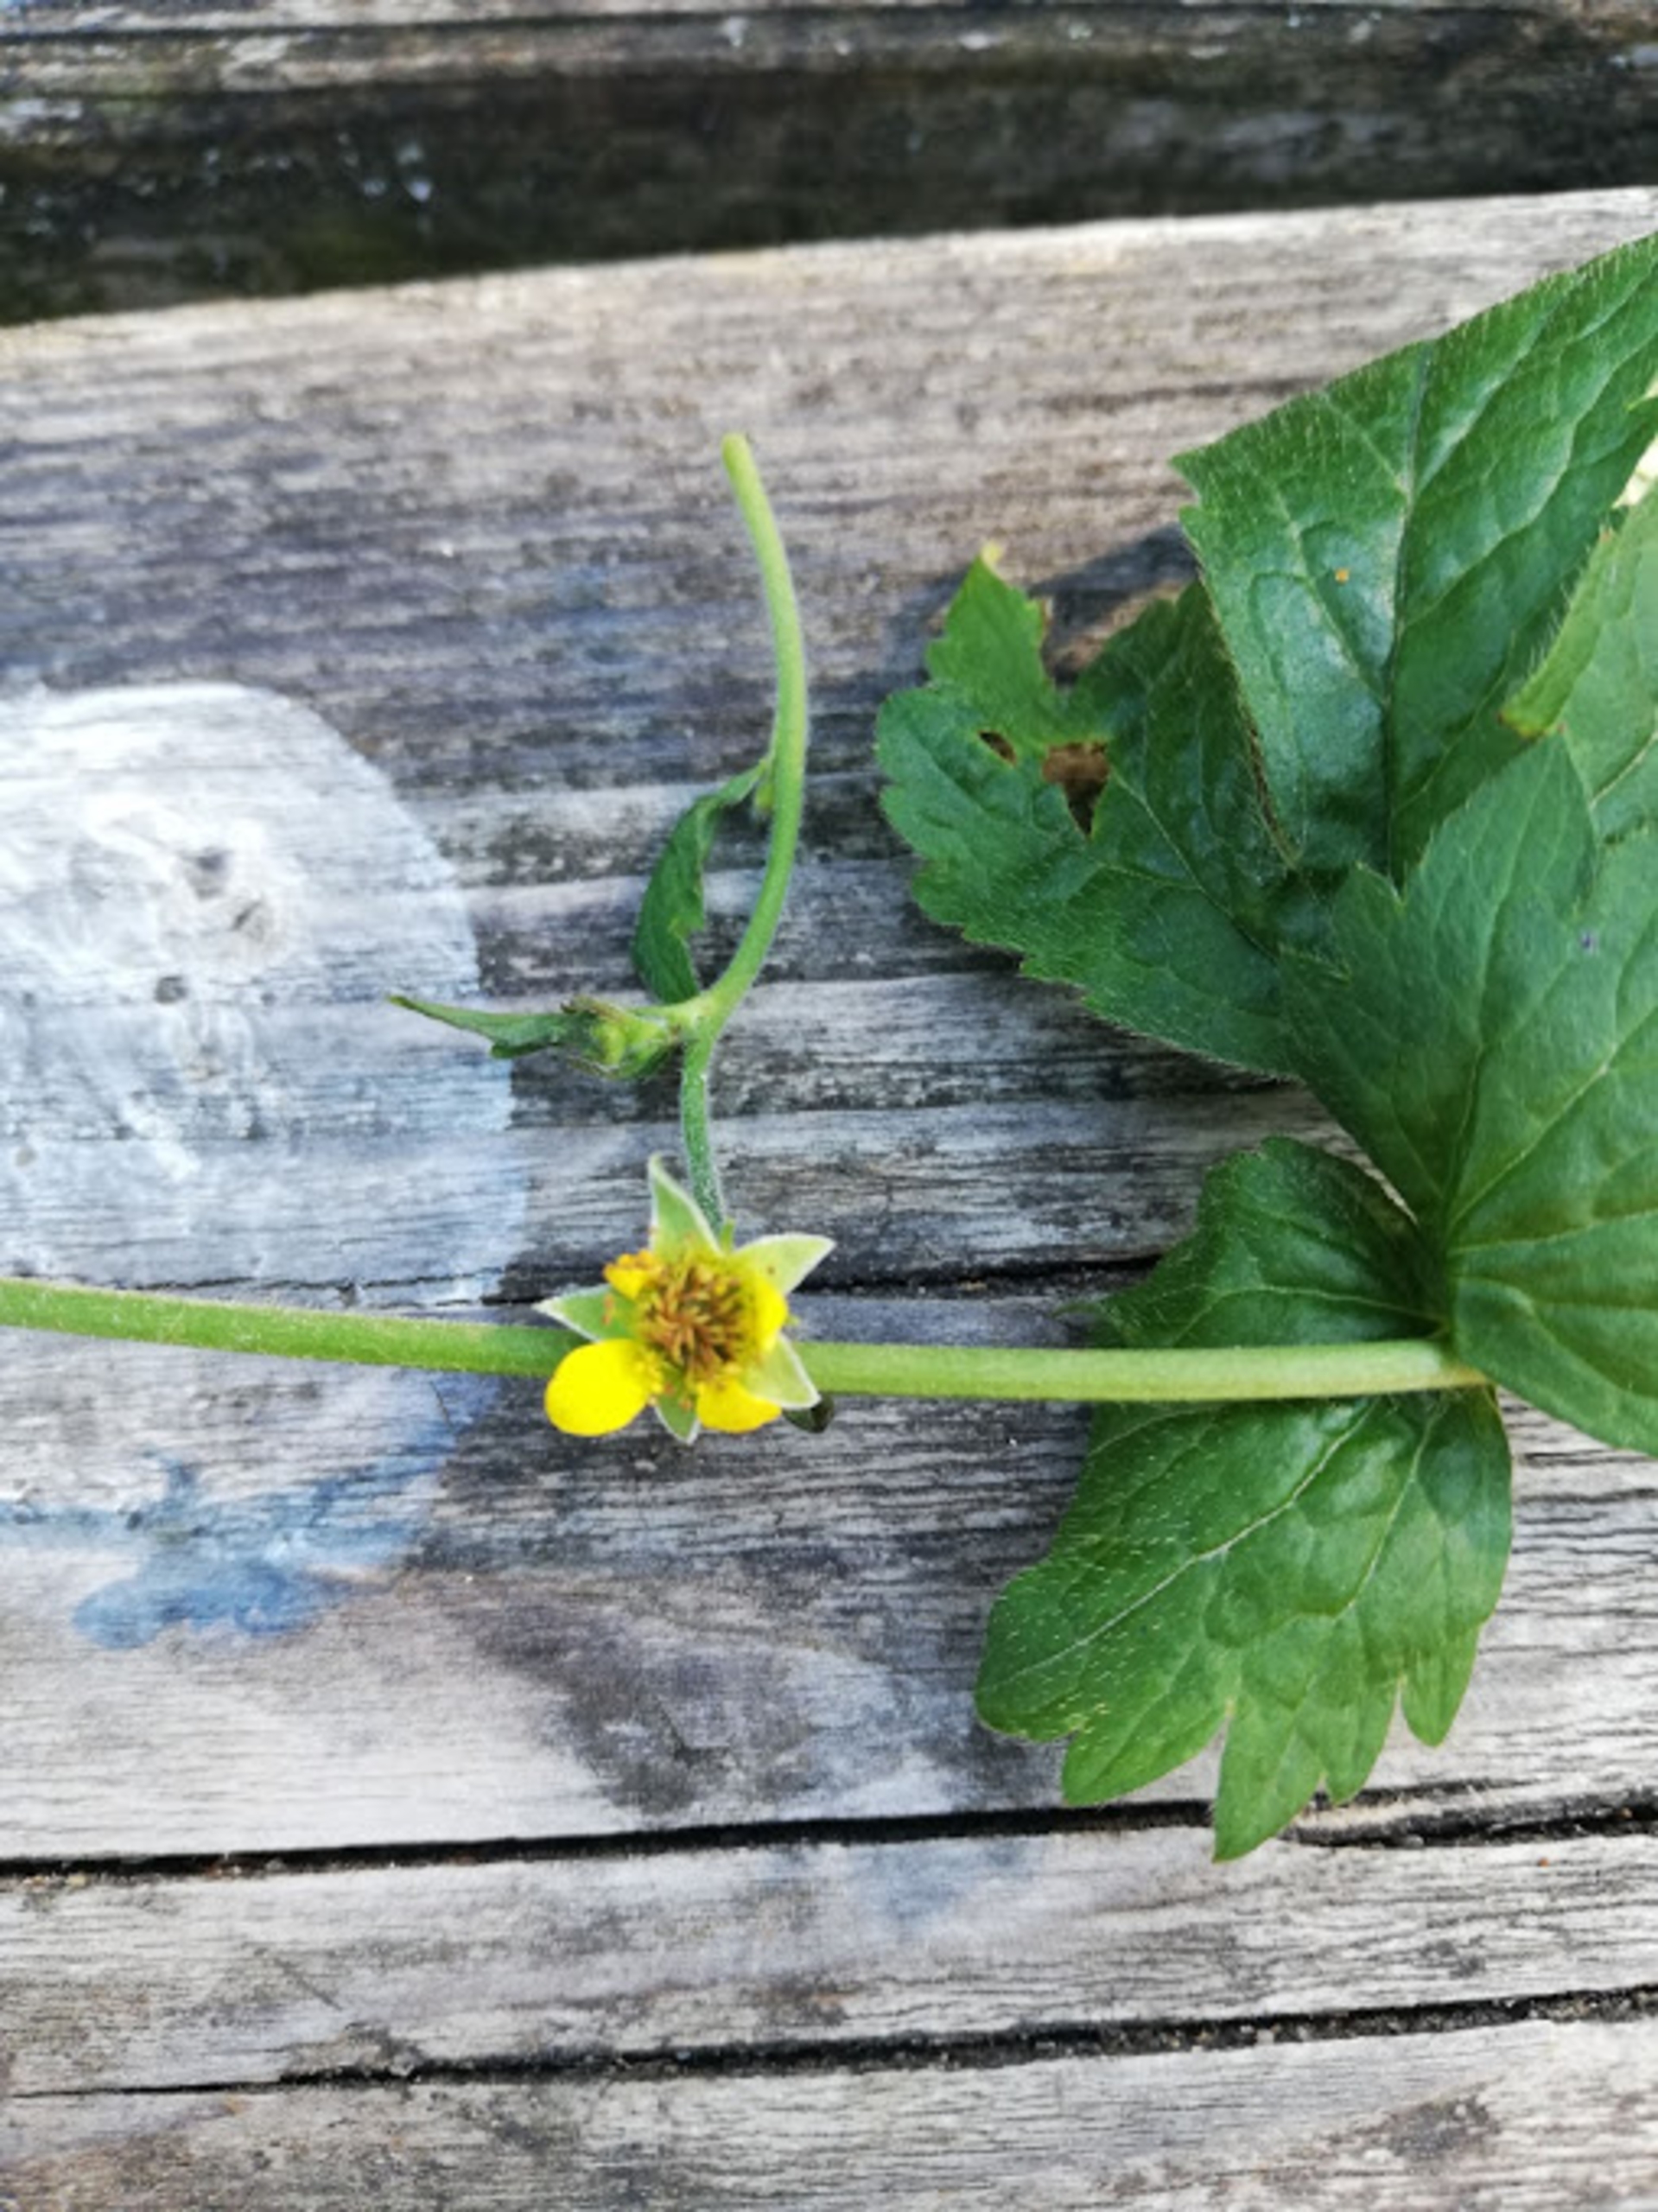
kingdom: Plantae
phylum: Tracheophyta
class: Magnoliopsida
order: Rosales
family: Rosaceae
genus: Geum
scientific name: Geum urbanum
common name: Feber-nellikerod
